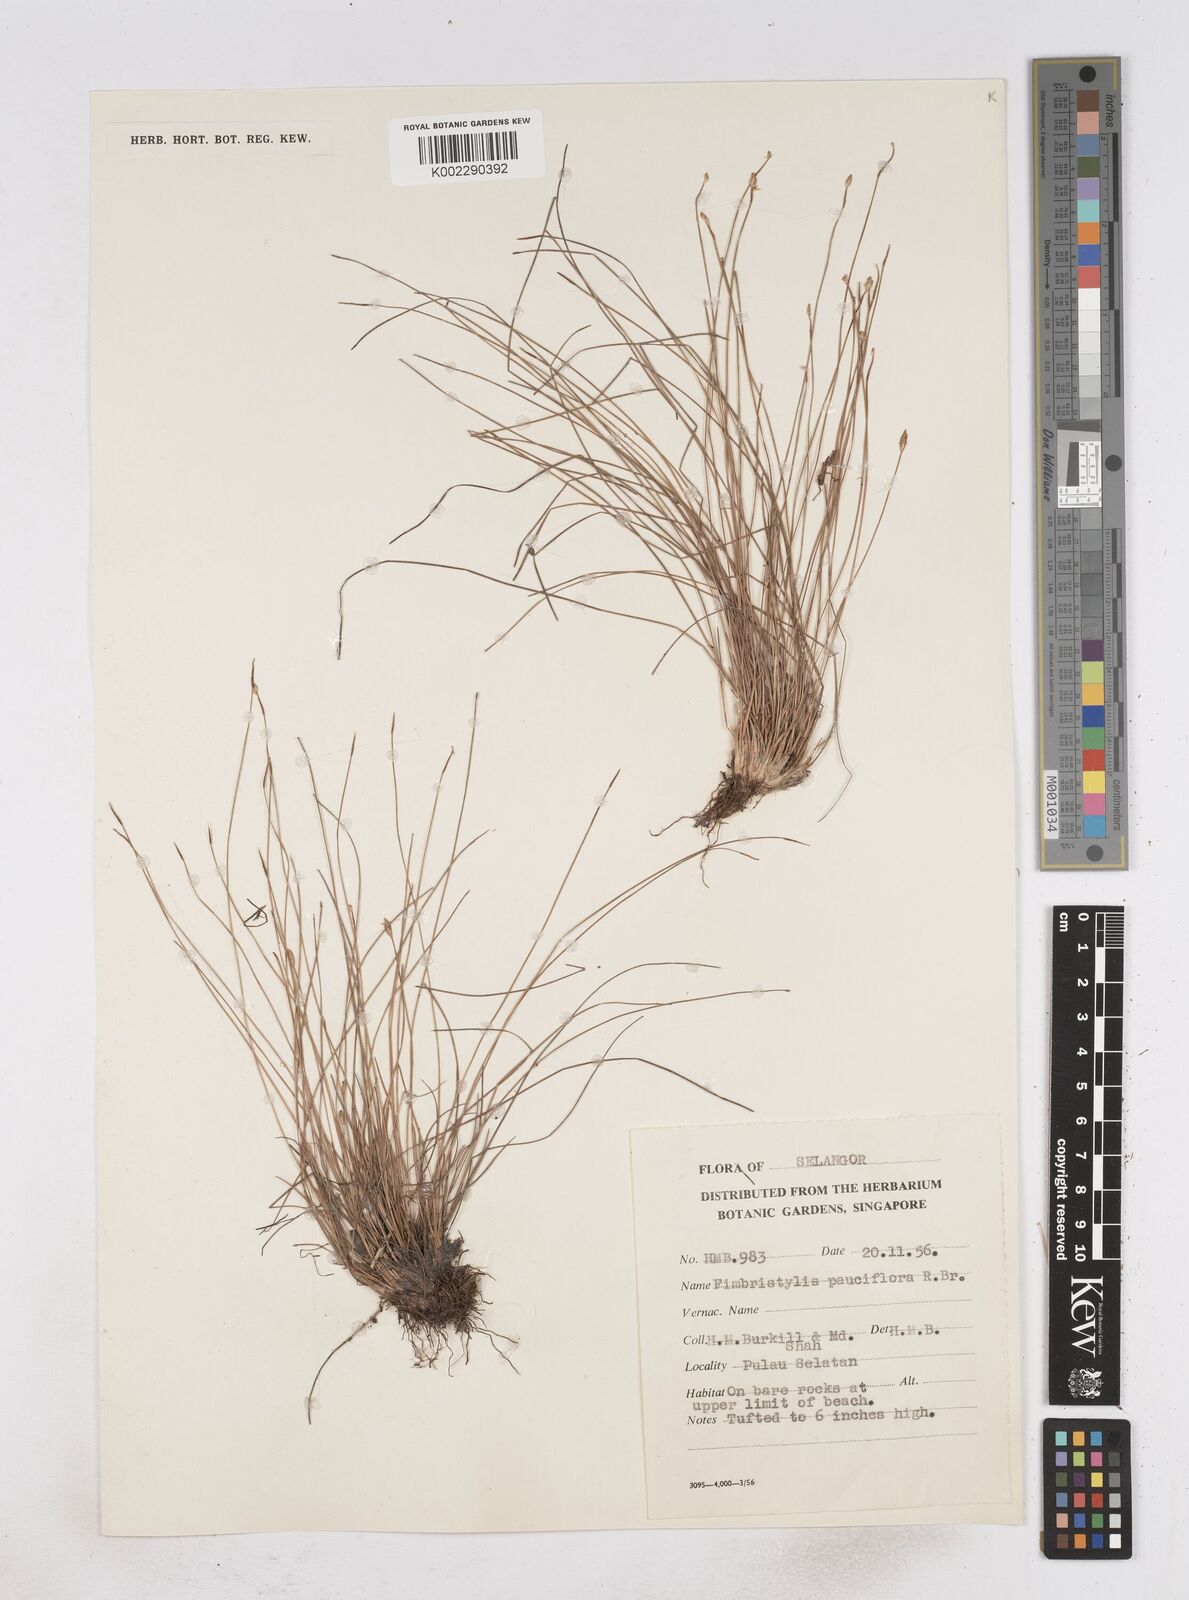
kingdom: Plantae
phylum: Tracheophyta
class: Liliopsida
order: Poales
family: Cyperaceae
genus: Fimbristylis
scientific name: Fimbristylis pauciflora
